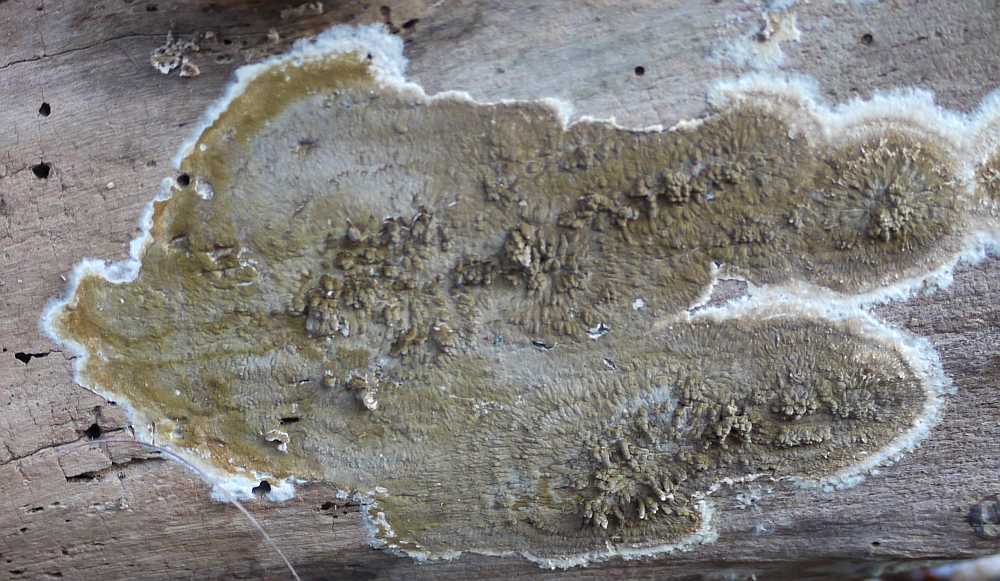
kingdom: Fungi
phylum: Basidiomycota
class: Agaricomycetes
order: Boletales
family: Coniophoraceae
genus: Coniophora
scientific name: Coniophora puteana
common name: gul tømmersvamp
